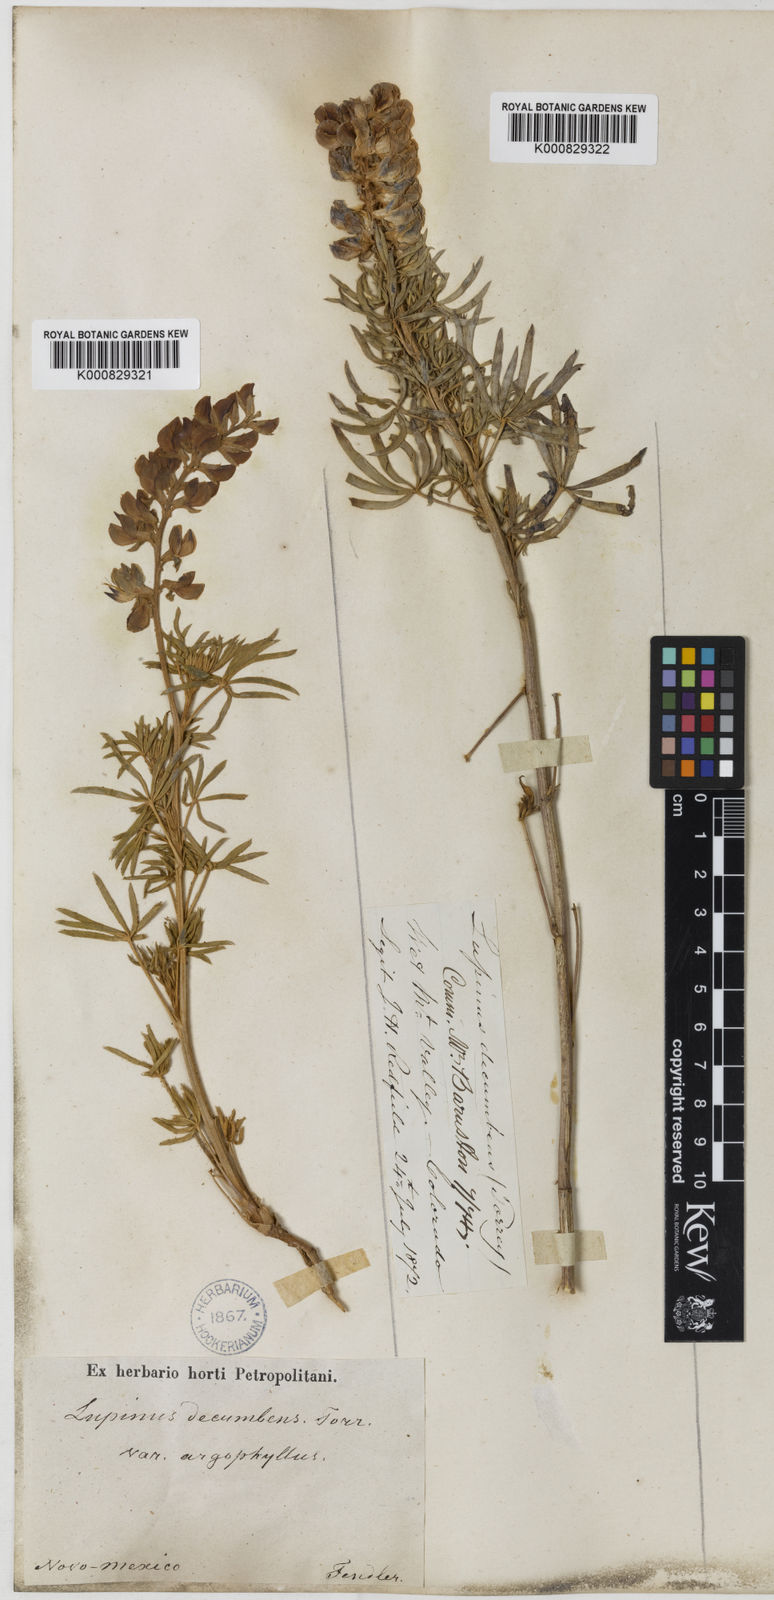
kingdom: Plantae
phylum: Tracheophyta
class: Magnoliopsida
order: Fabales
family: Fabaceae
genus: Lupinus
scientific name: Lupinus
